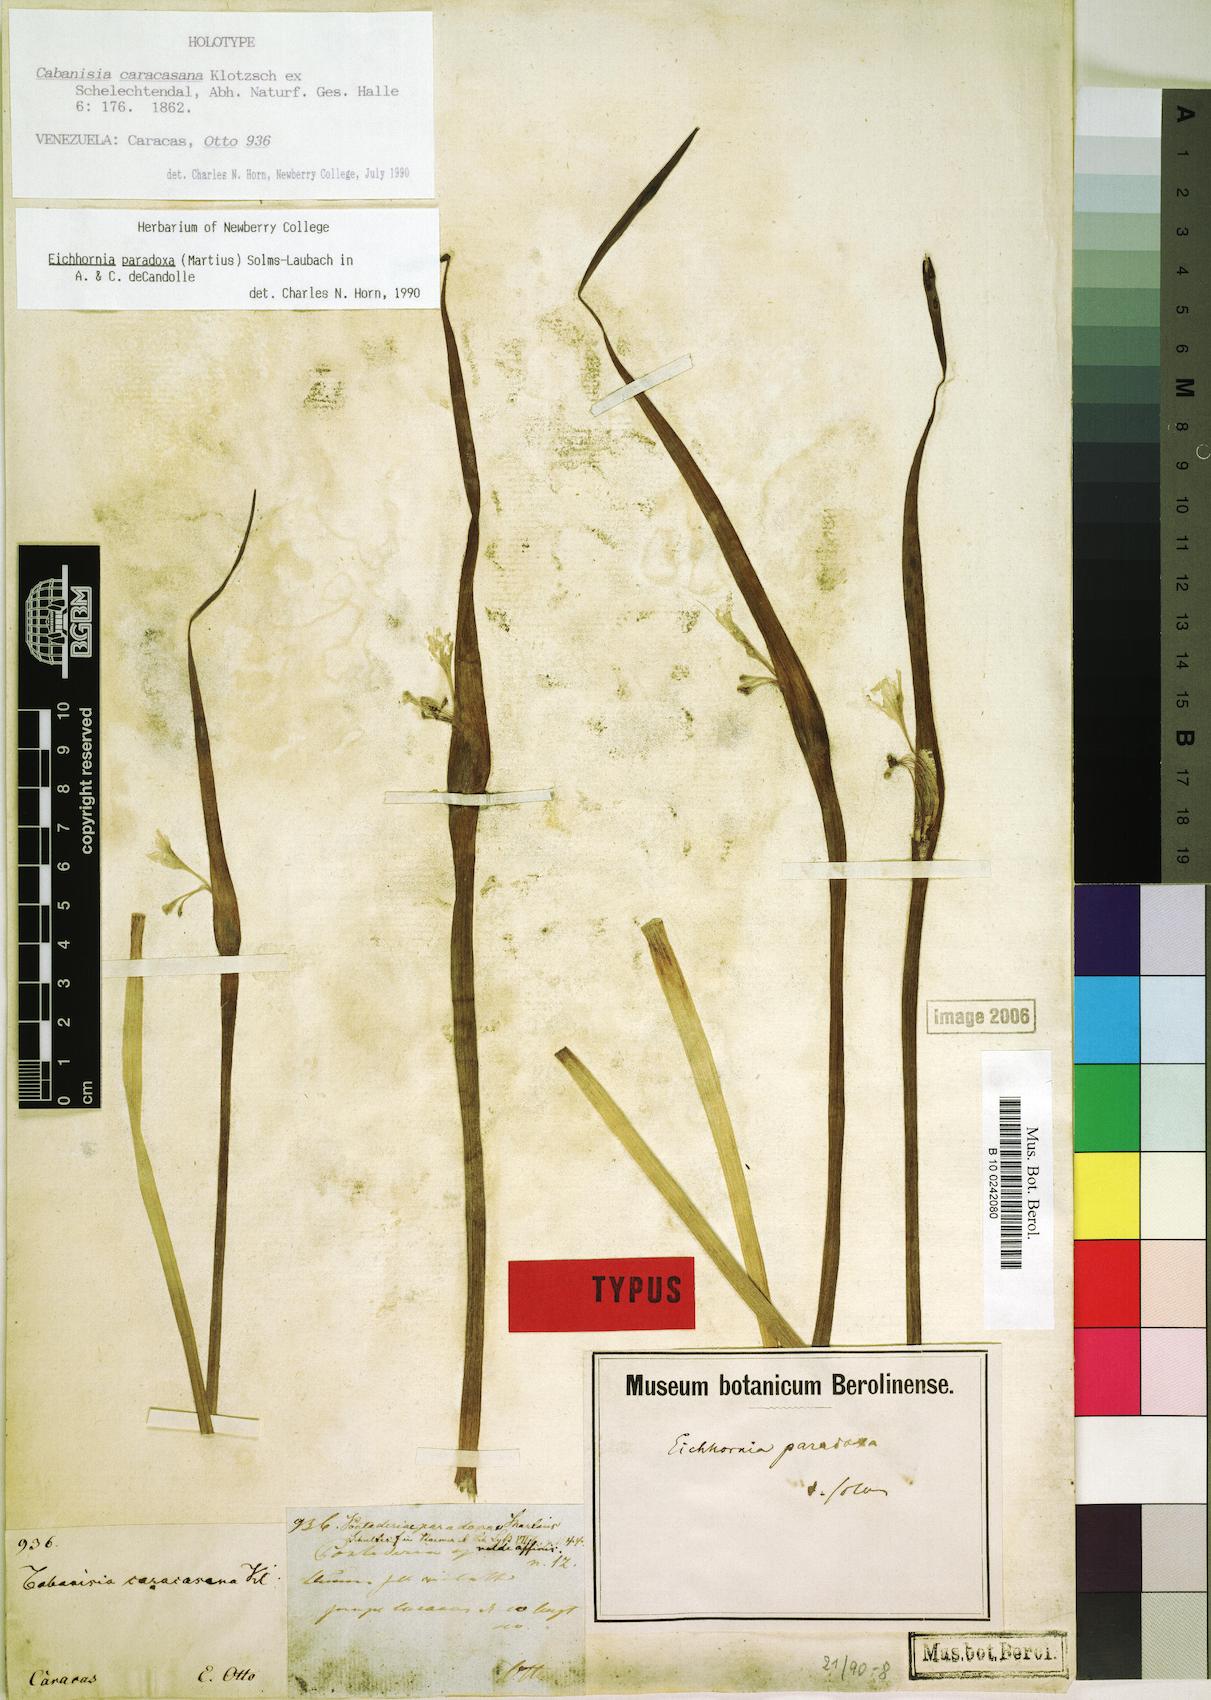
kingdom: Plantae
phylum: Tracheophyta
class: Liliopsida
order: Commelinales
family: Pontederiaceae
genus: Pontederia
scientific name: Pontederia paradoxa
